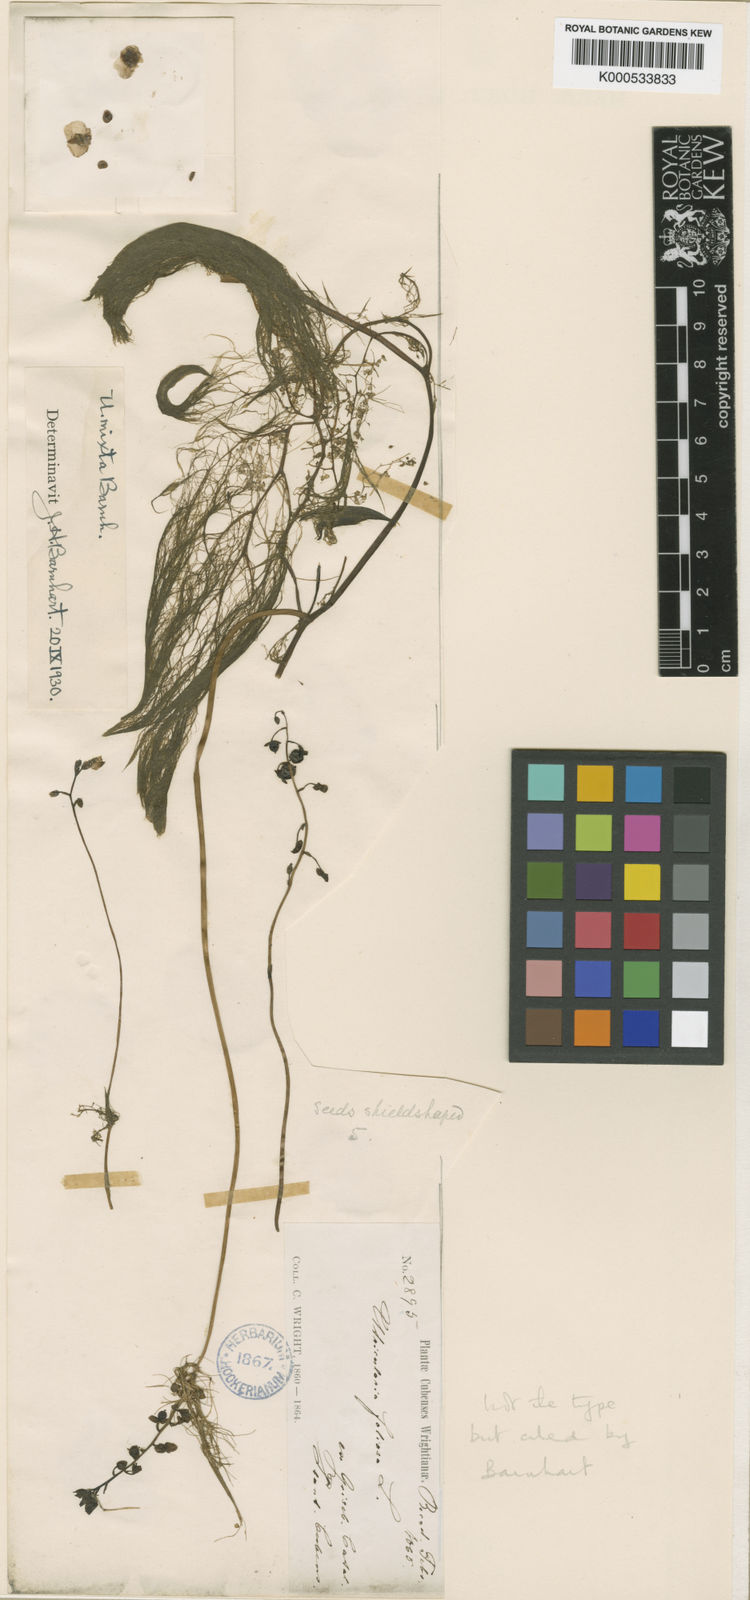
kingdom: Plantae
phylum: Tracheophyta
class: Magnoliopsida
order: Lamiales
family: Lentibulariaceae
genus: Utricularia
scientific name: Utricularia foliosa
